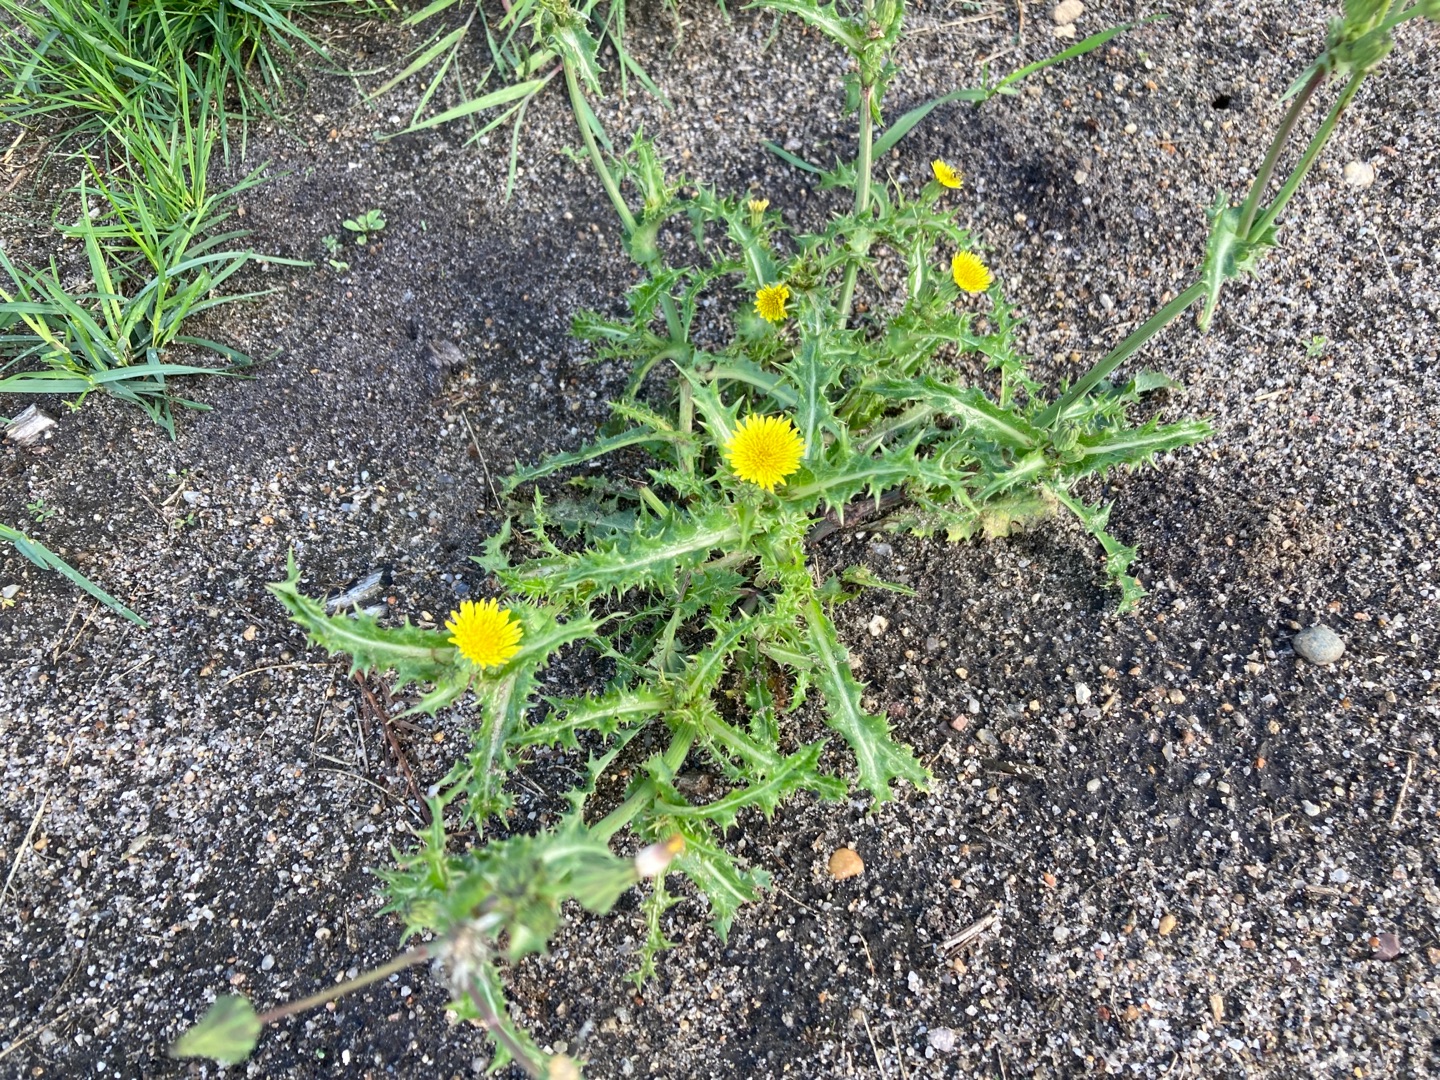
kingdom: Plantae
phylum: Tracheophyta
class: Magnoliopsida
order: Asterales
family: Asteraceae
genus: Sonchus
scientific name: Sonchus asper
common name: Ru svinemælk
